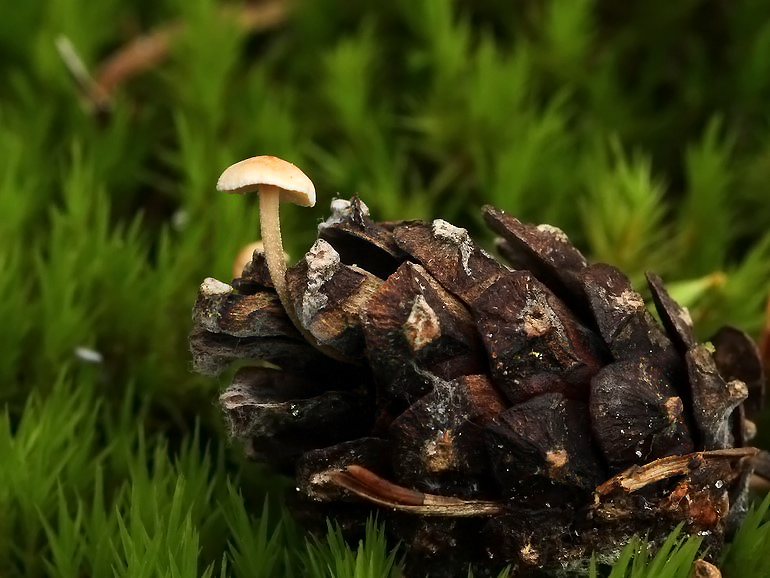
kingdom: Fungi
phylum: Basidiomycota
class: Agaricomycetes
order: Agaricales
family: Marasmiaceae
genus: Baeospora
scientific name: Baeospora myosura
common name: koglebruskhat
